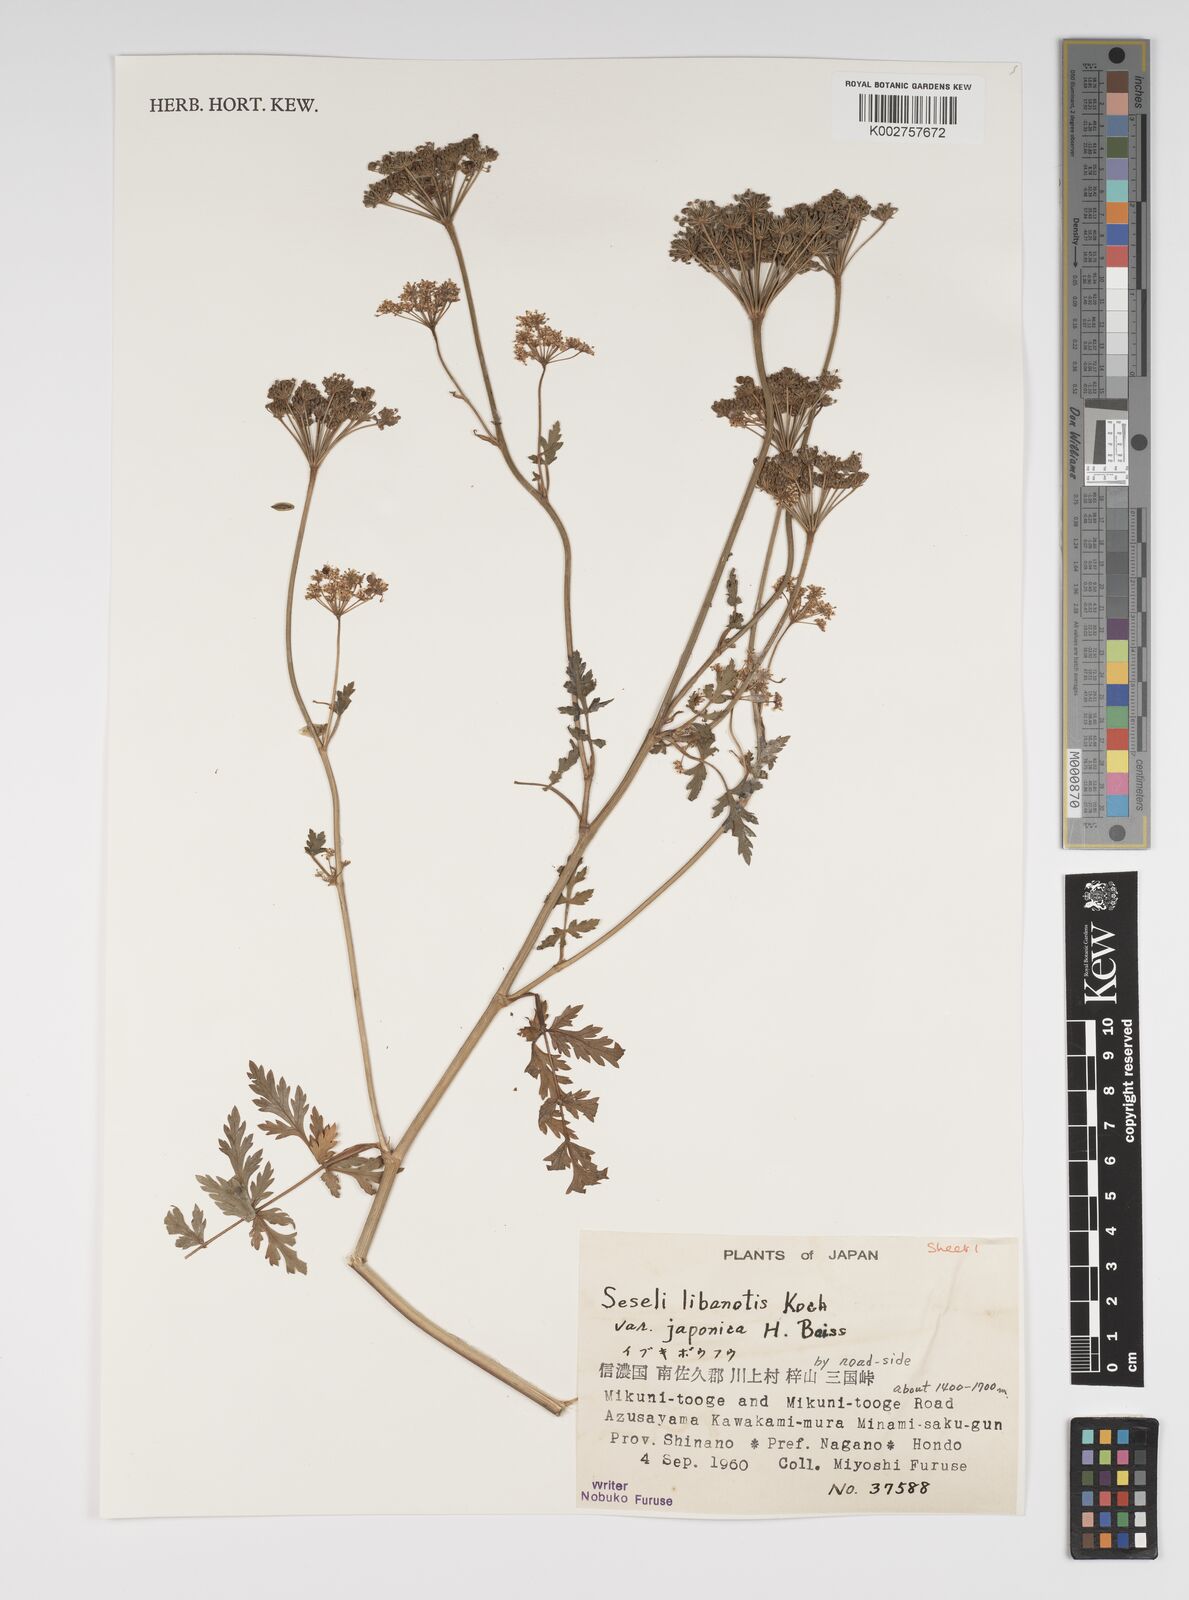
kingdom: Plantae
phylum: Tracheophyta
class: Magnoliopsida
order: Apiales
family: Apiaceae
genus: Seseli
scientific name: Seseli libanotis
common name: Mooncarrot
